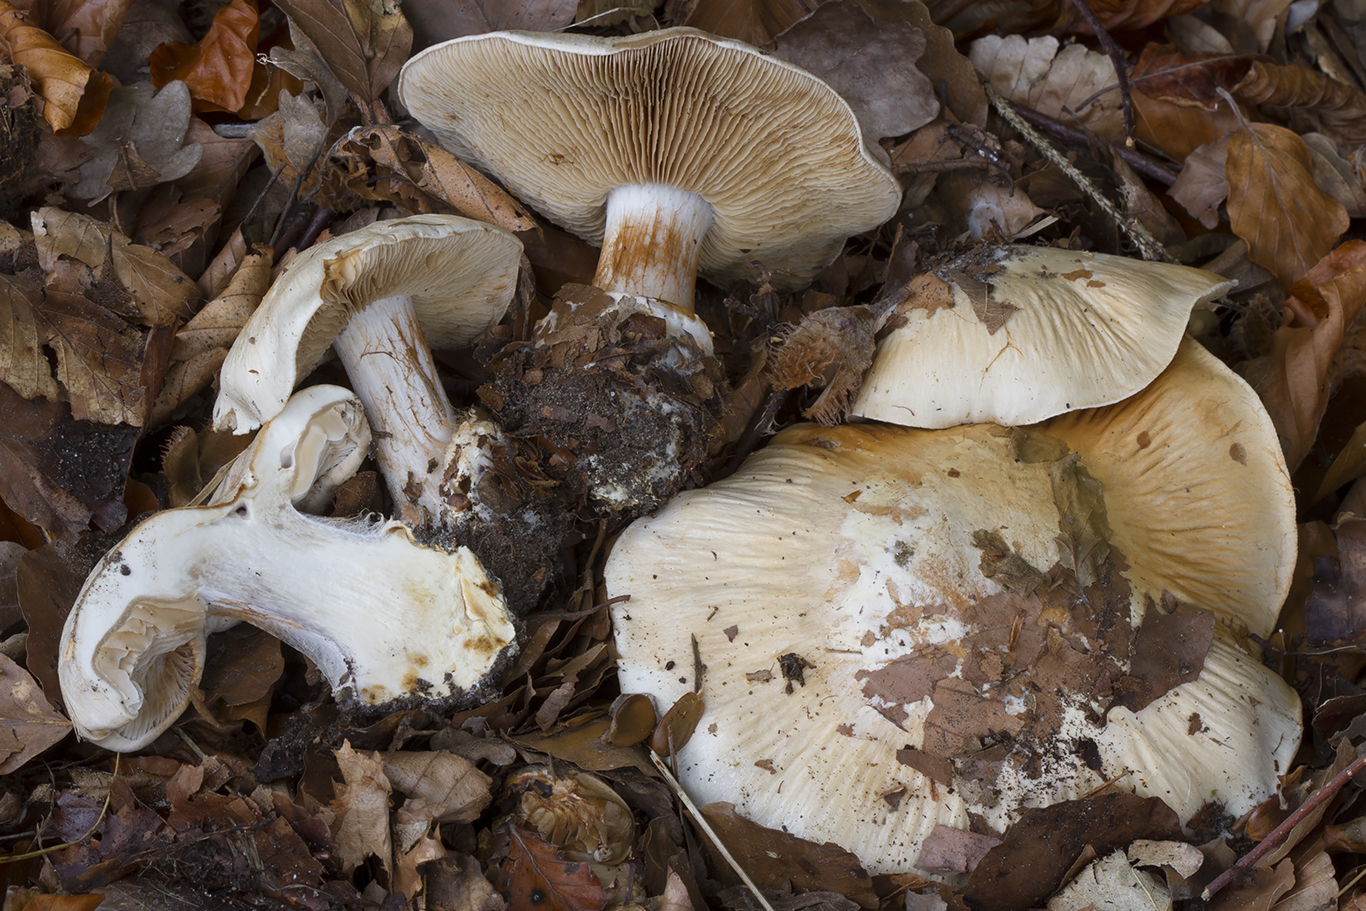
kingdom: Fungi
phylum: Basidiomycota
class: Agaricomycetes
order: Agaricales
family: Cortinariaceae
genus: Cortinarius
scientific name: Cortinarius foetens
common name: stribet slørhat
